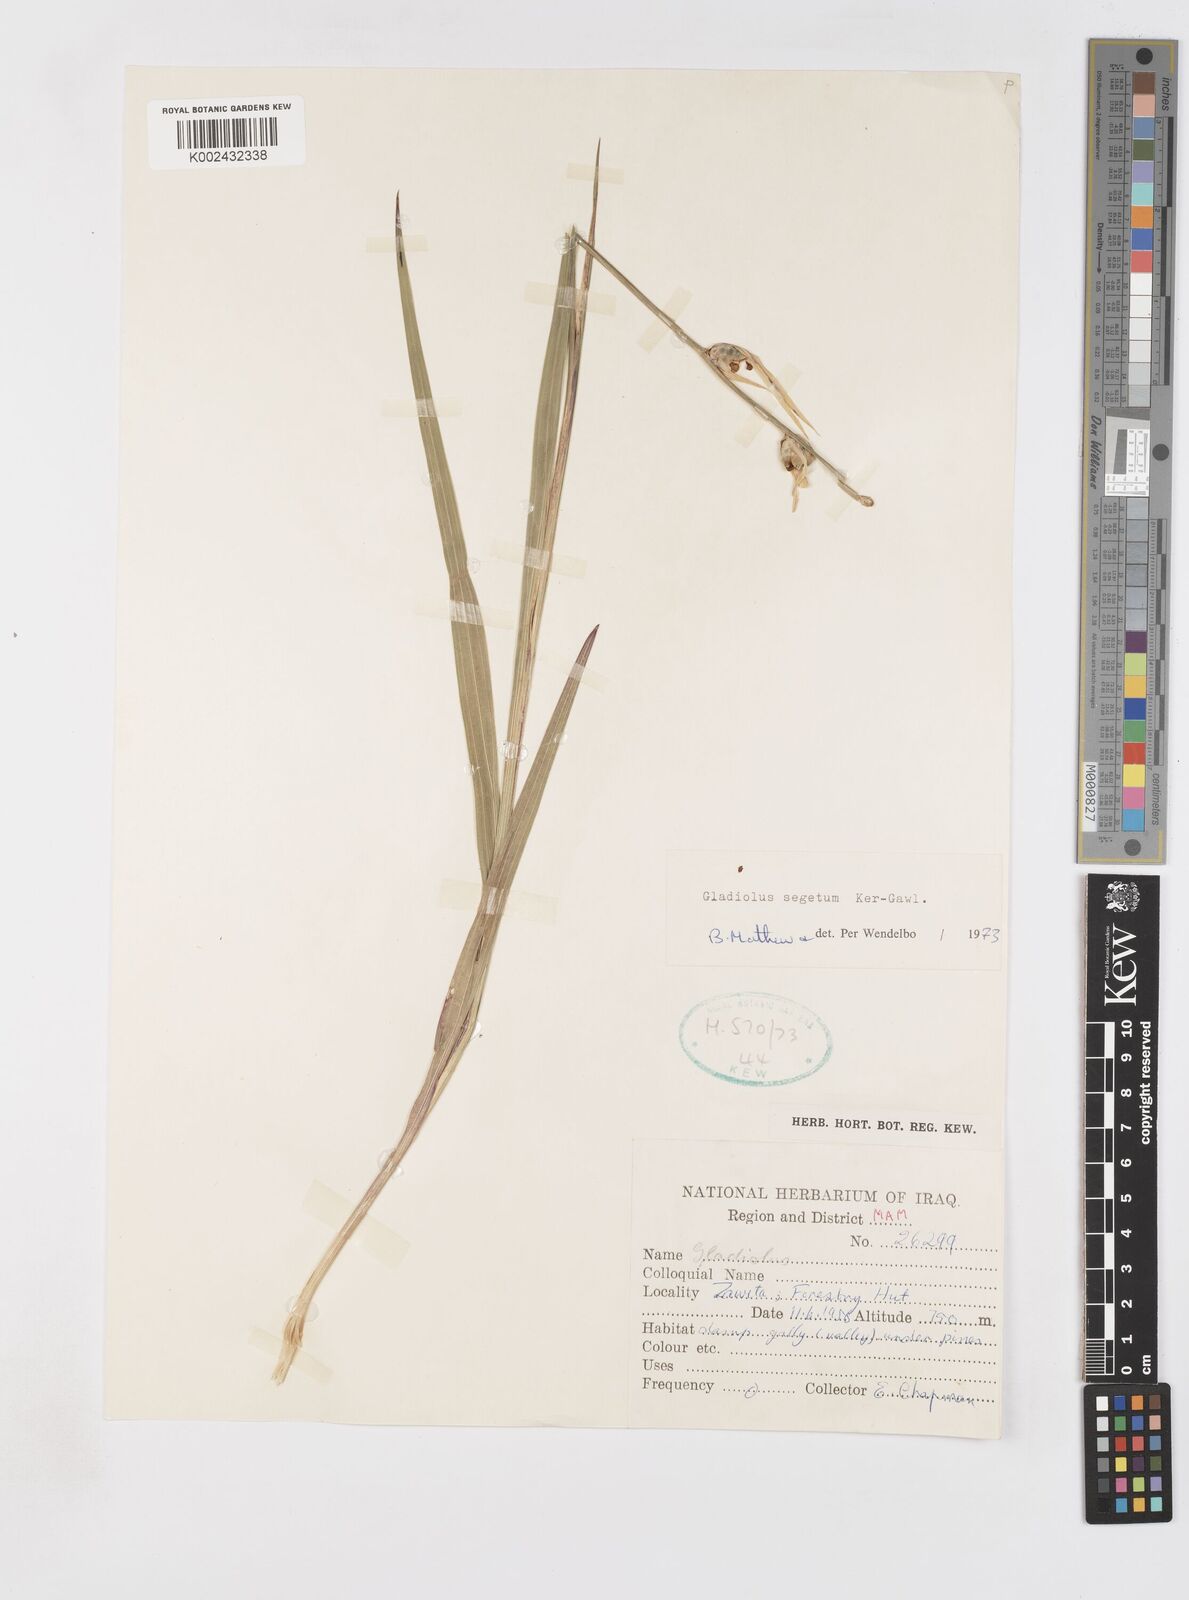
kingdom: Plantae
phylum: Tracheophyta
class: Liliopsida
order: Asparagales
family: Iridaceae
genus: Gladiolus
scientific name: Gladiolus italicus
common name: Field gladiolus
